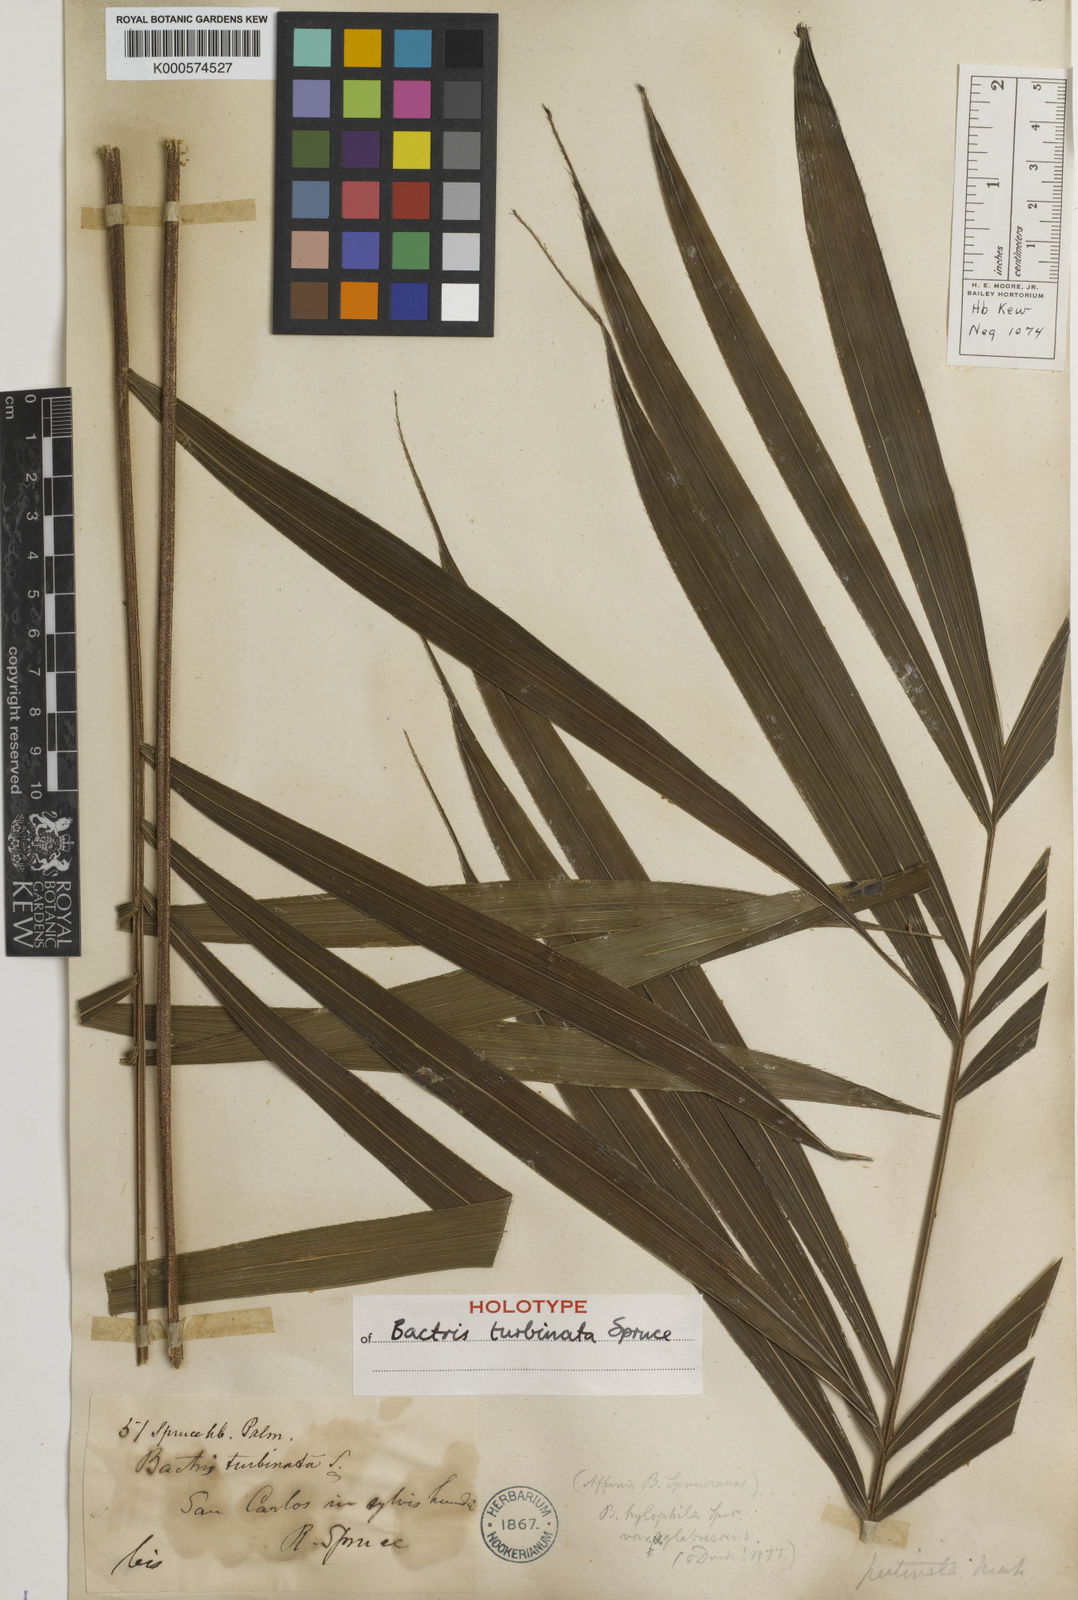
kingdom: Plantae
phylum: Tracheophyta
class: Liliopsida
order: Arecales
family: Arecaceae
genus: Bactris
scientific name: Bactris hirta
